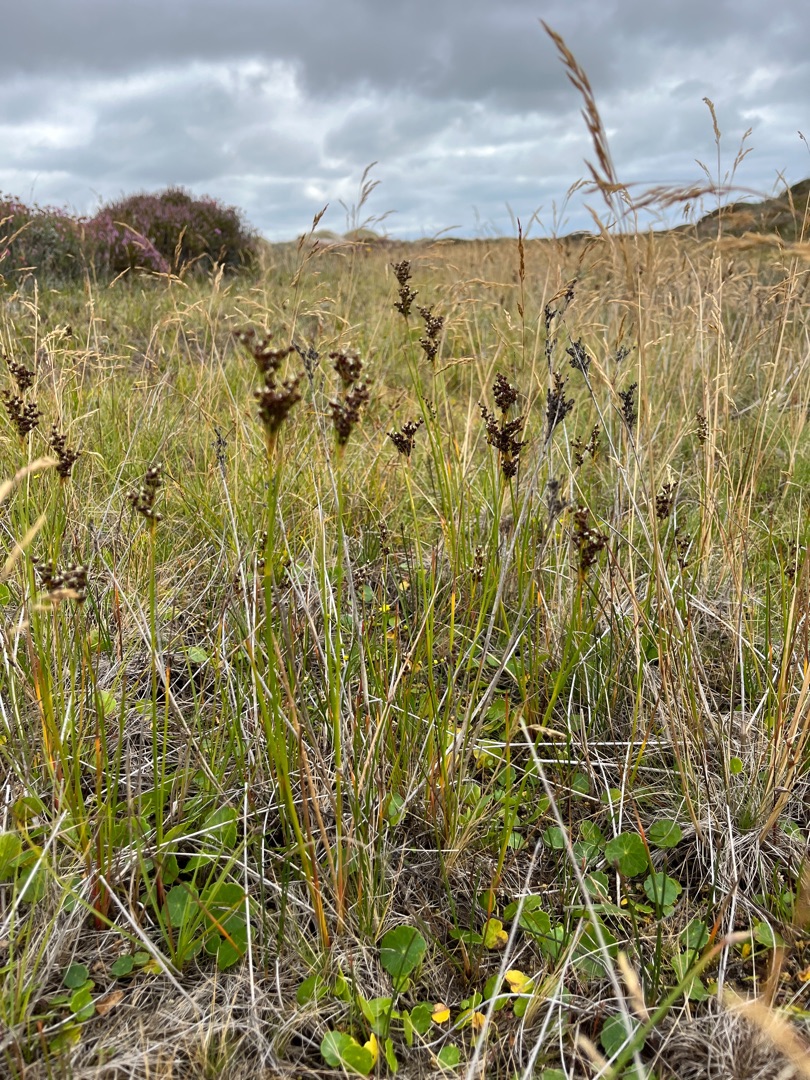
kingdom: Plantae
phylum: Tracheophyta
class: Liliopsida
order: Poales
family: Juncaceae
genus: Juncus
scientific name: Juncus anceps
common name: Sand-siv
